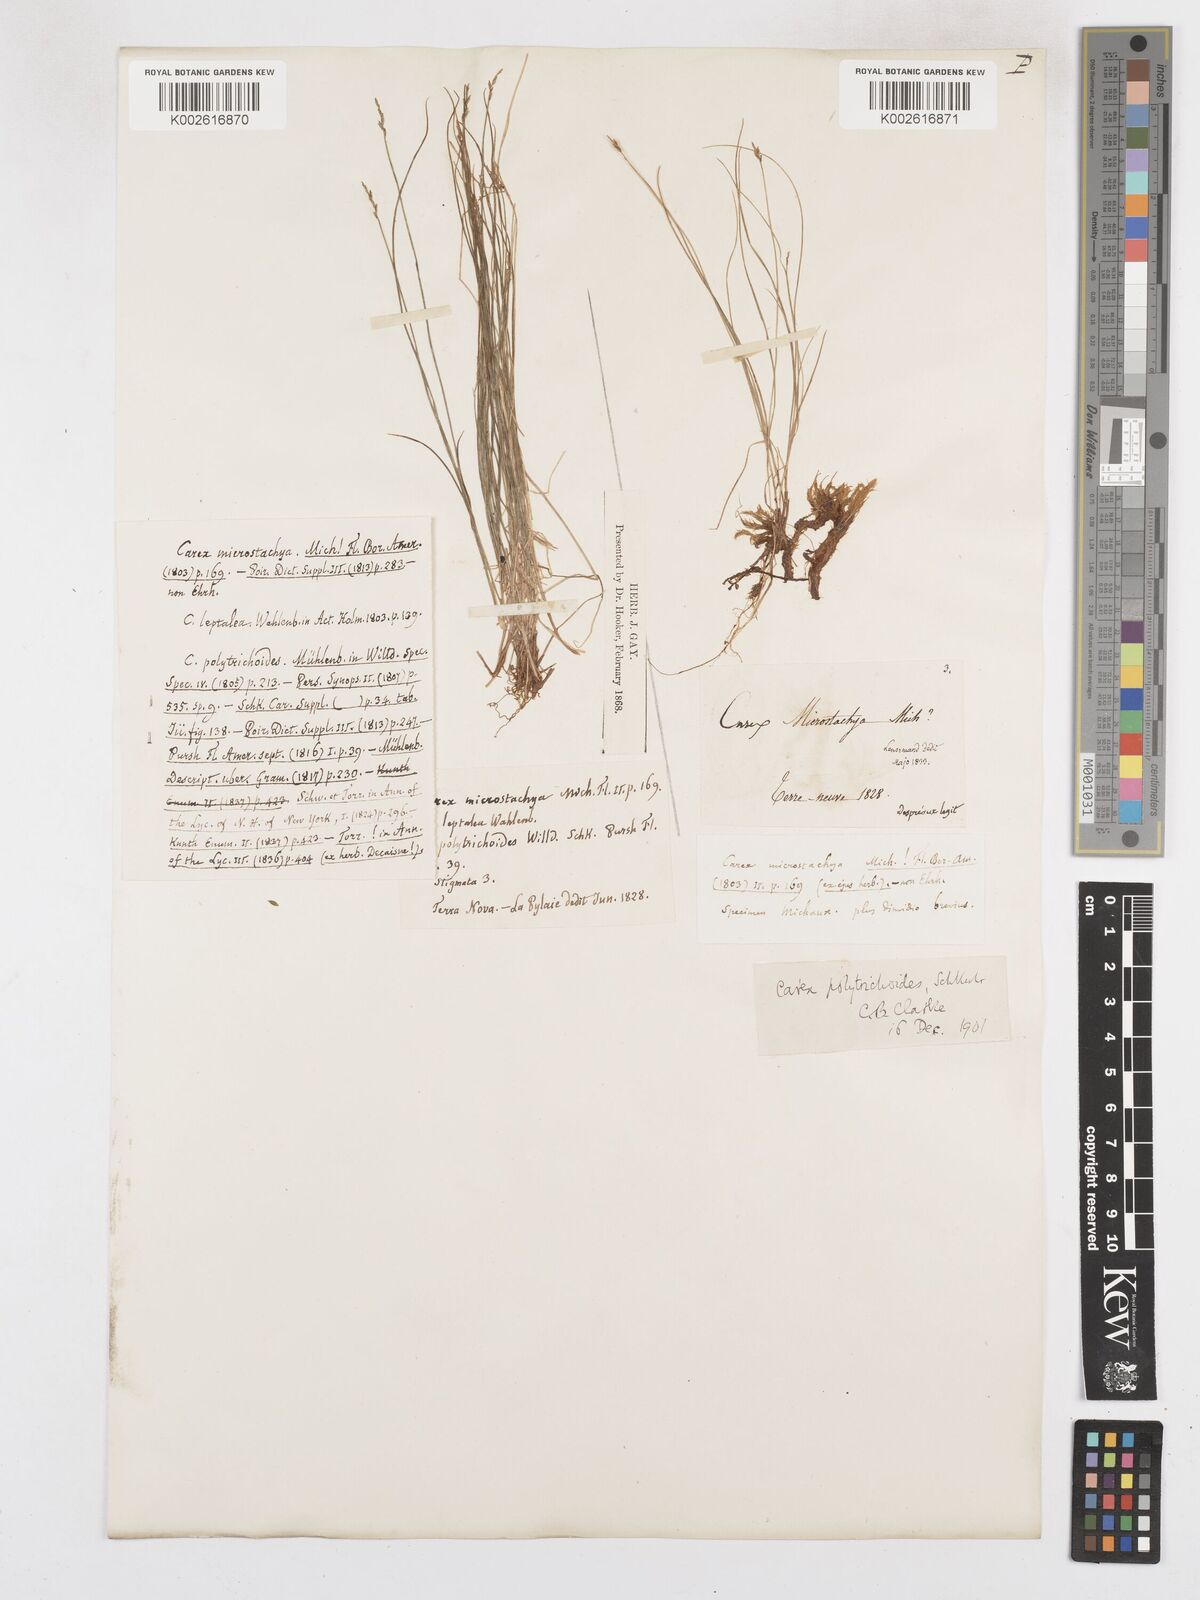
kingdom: Plantae
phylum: Tracheophyta
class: Liliopsida
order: Poales
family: Cyperaceae
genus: Carex
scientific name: Carex leptalea
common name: Bristly-stalked sedge
